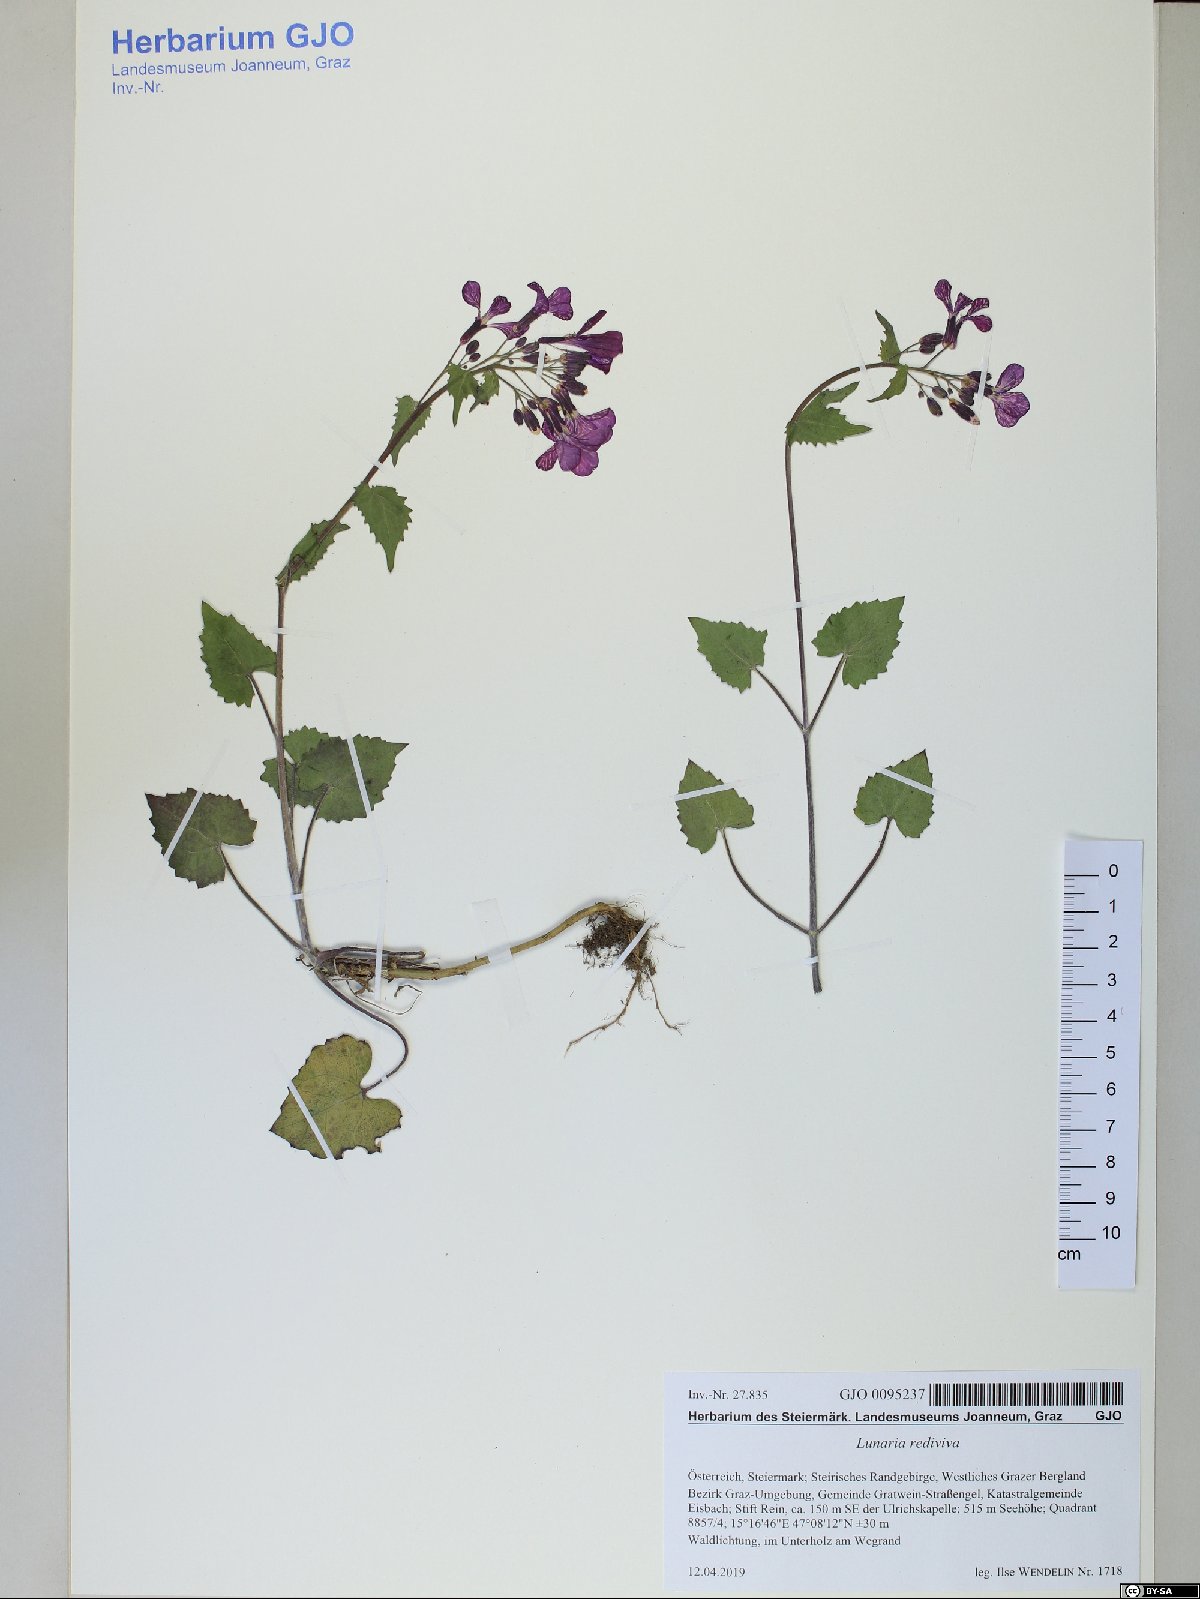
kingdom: Plantae
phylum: Tracheophyta
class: Magnoliopsida
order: Brassicales
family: Brassicaceae
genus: Lunaria
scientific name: Lunaria rediviva
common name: Perennial honesty
